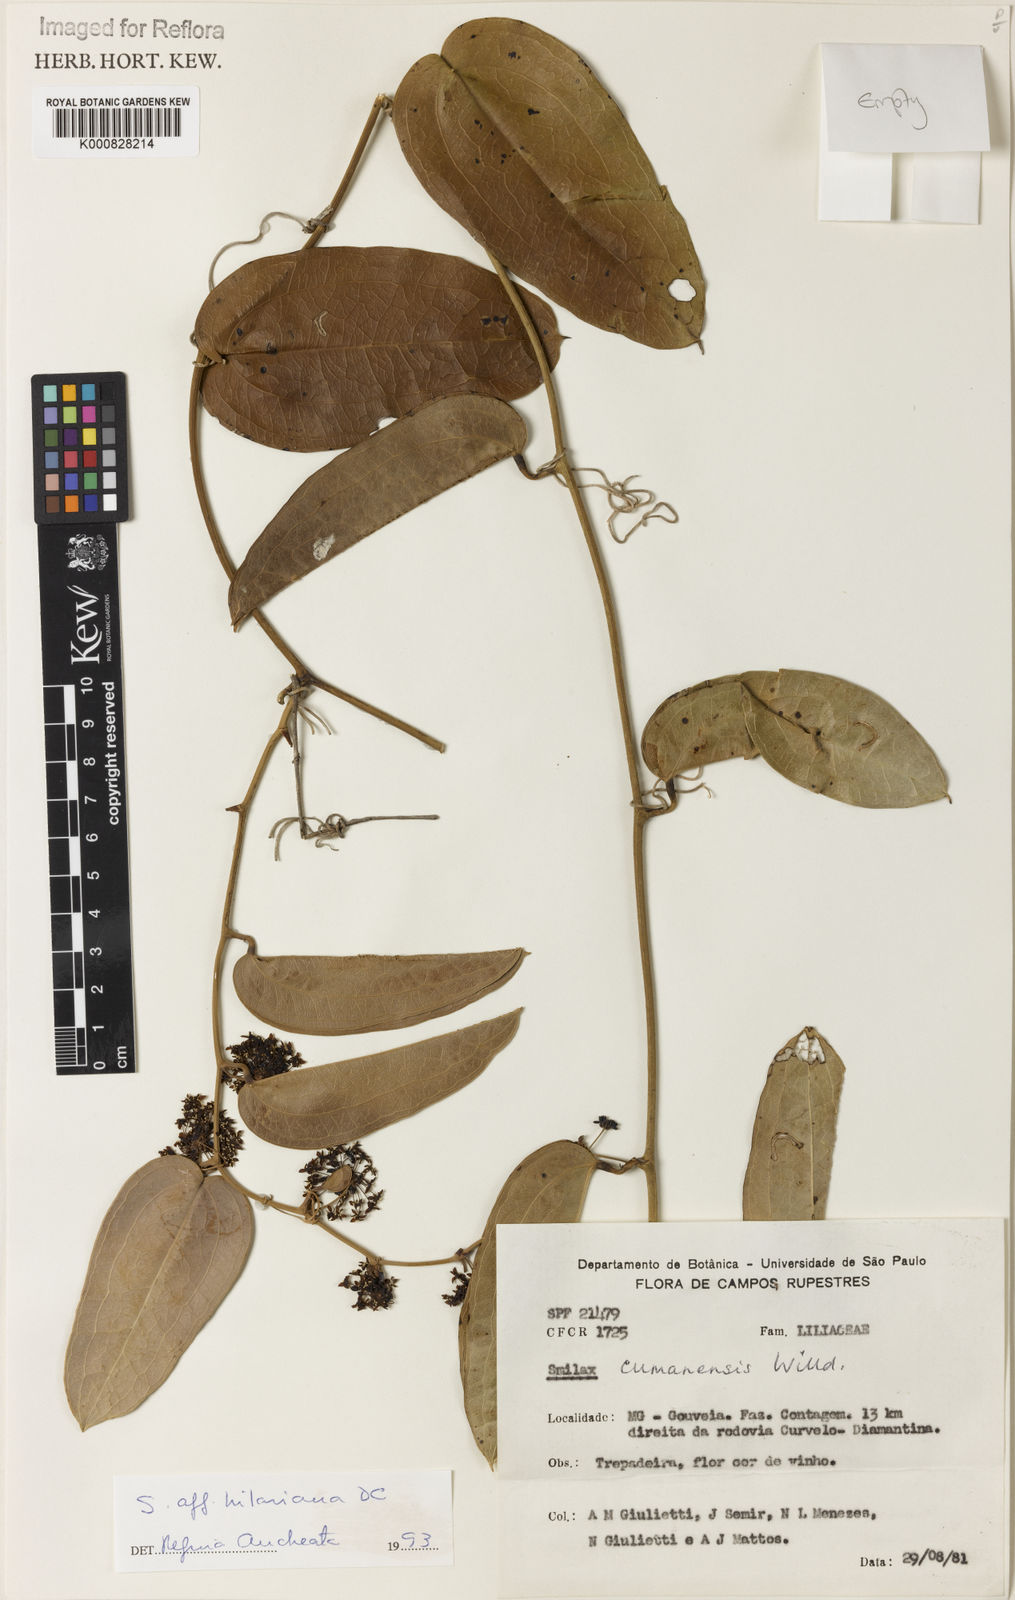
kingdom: Plantae
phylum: Tracheophyta
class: Liliopsida
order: Liliales
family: Smilacaceae
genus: Smilax
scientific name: Smilax hilariana
